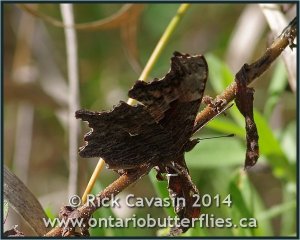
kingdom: Animalia
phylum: Arthropoda
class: Insecta
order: Lepidoptera
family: Nymphalidae
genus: Polygonia
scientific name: Polygonia progne
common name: Gray Comma
